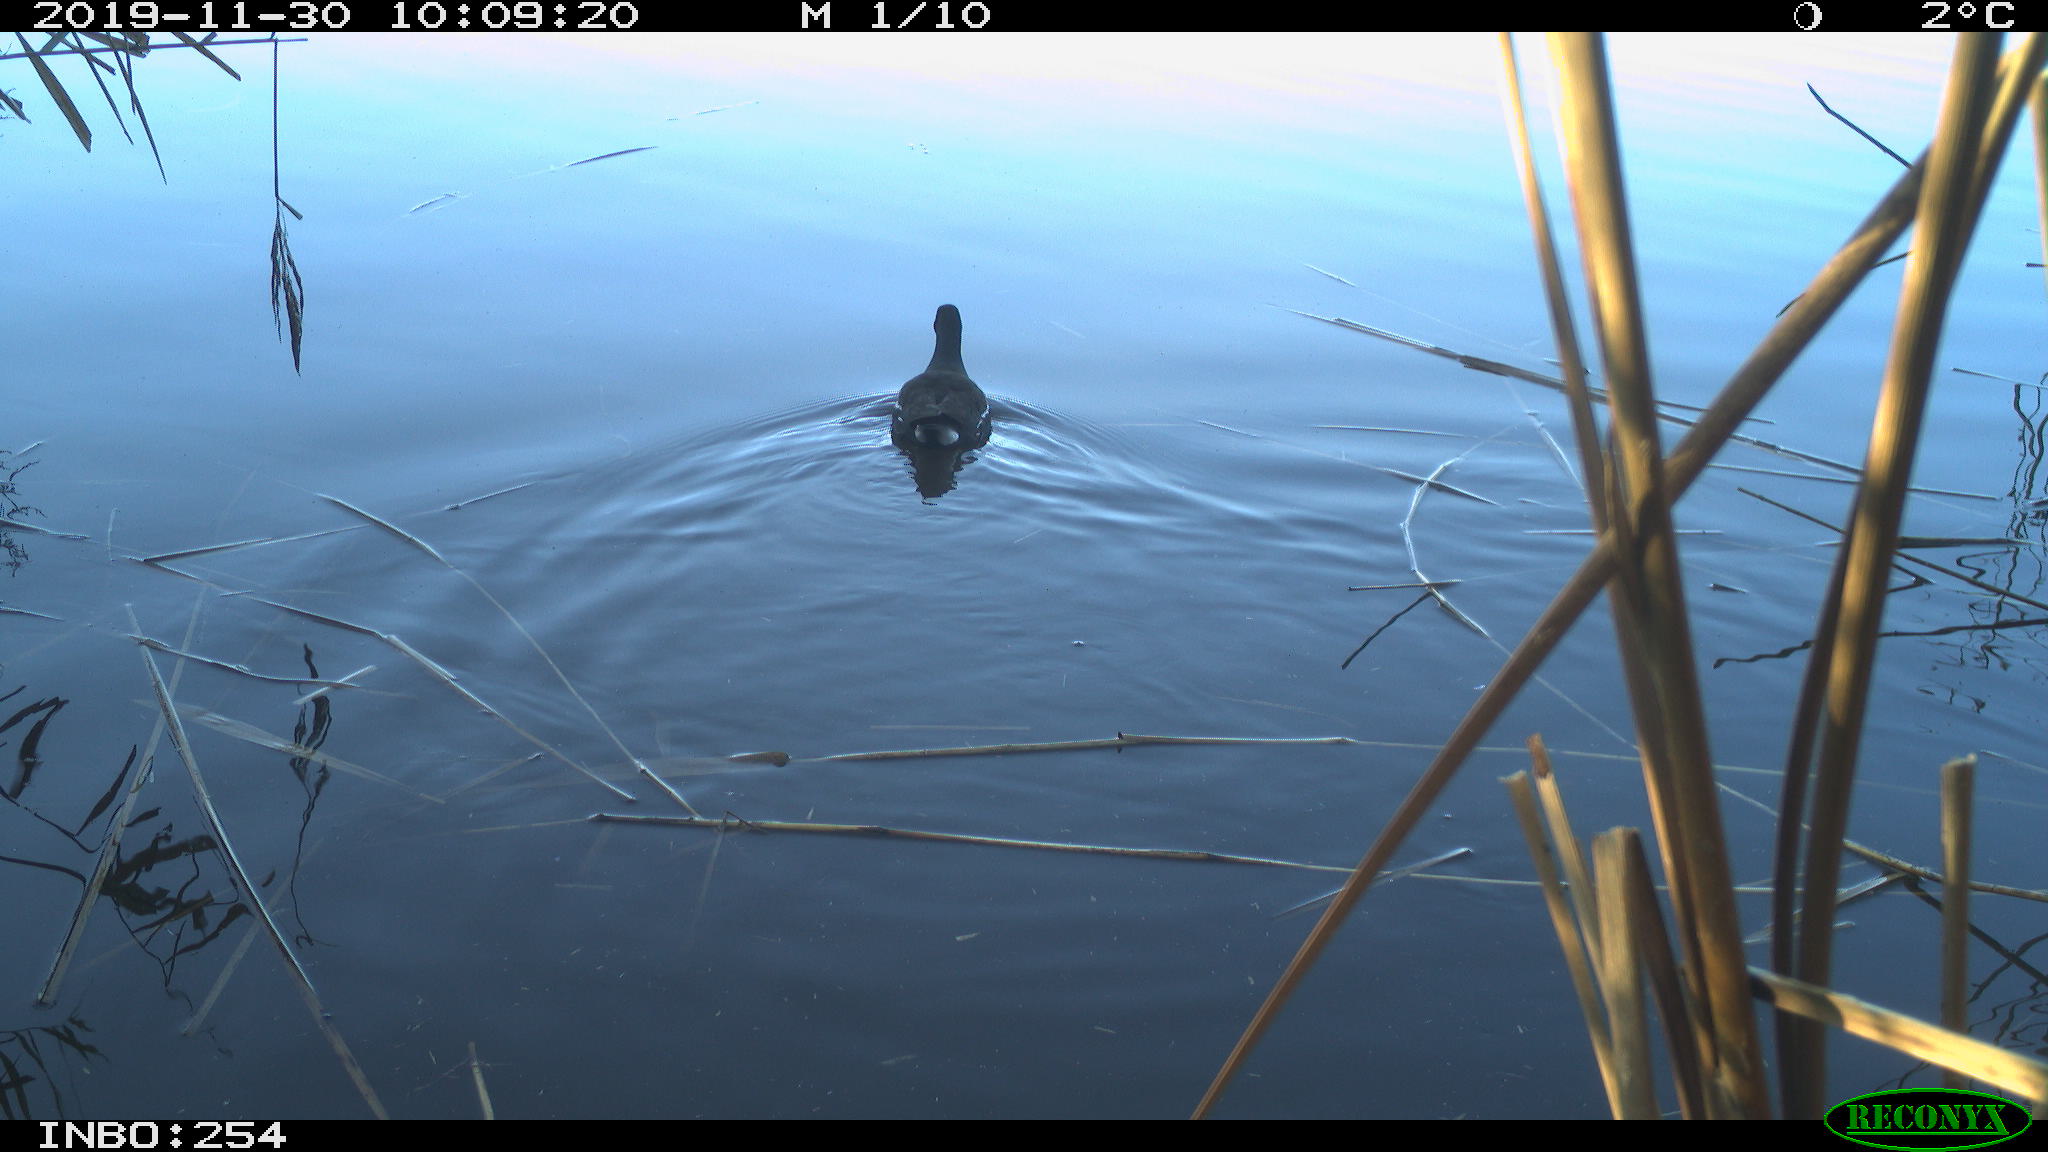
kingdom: Animalia
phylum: Chordata
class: Aves
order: Gruiformes
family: Rallidae
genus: Gallinula
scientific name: Gallinula chloropus
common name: Common moorhen
